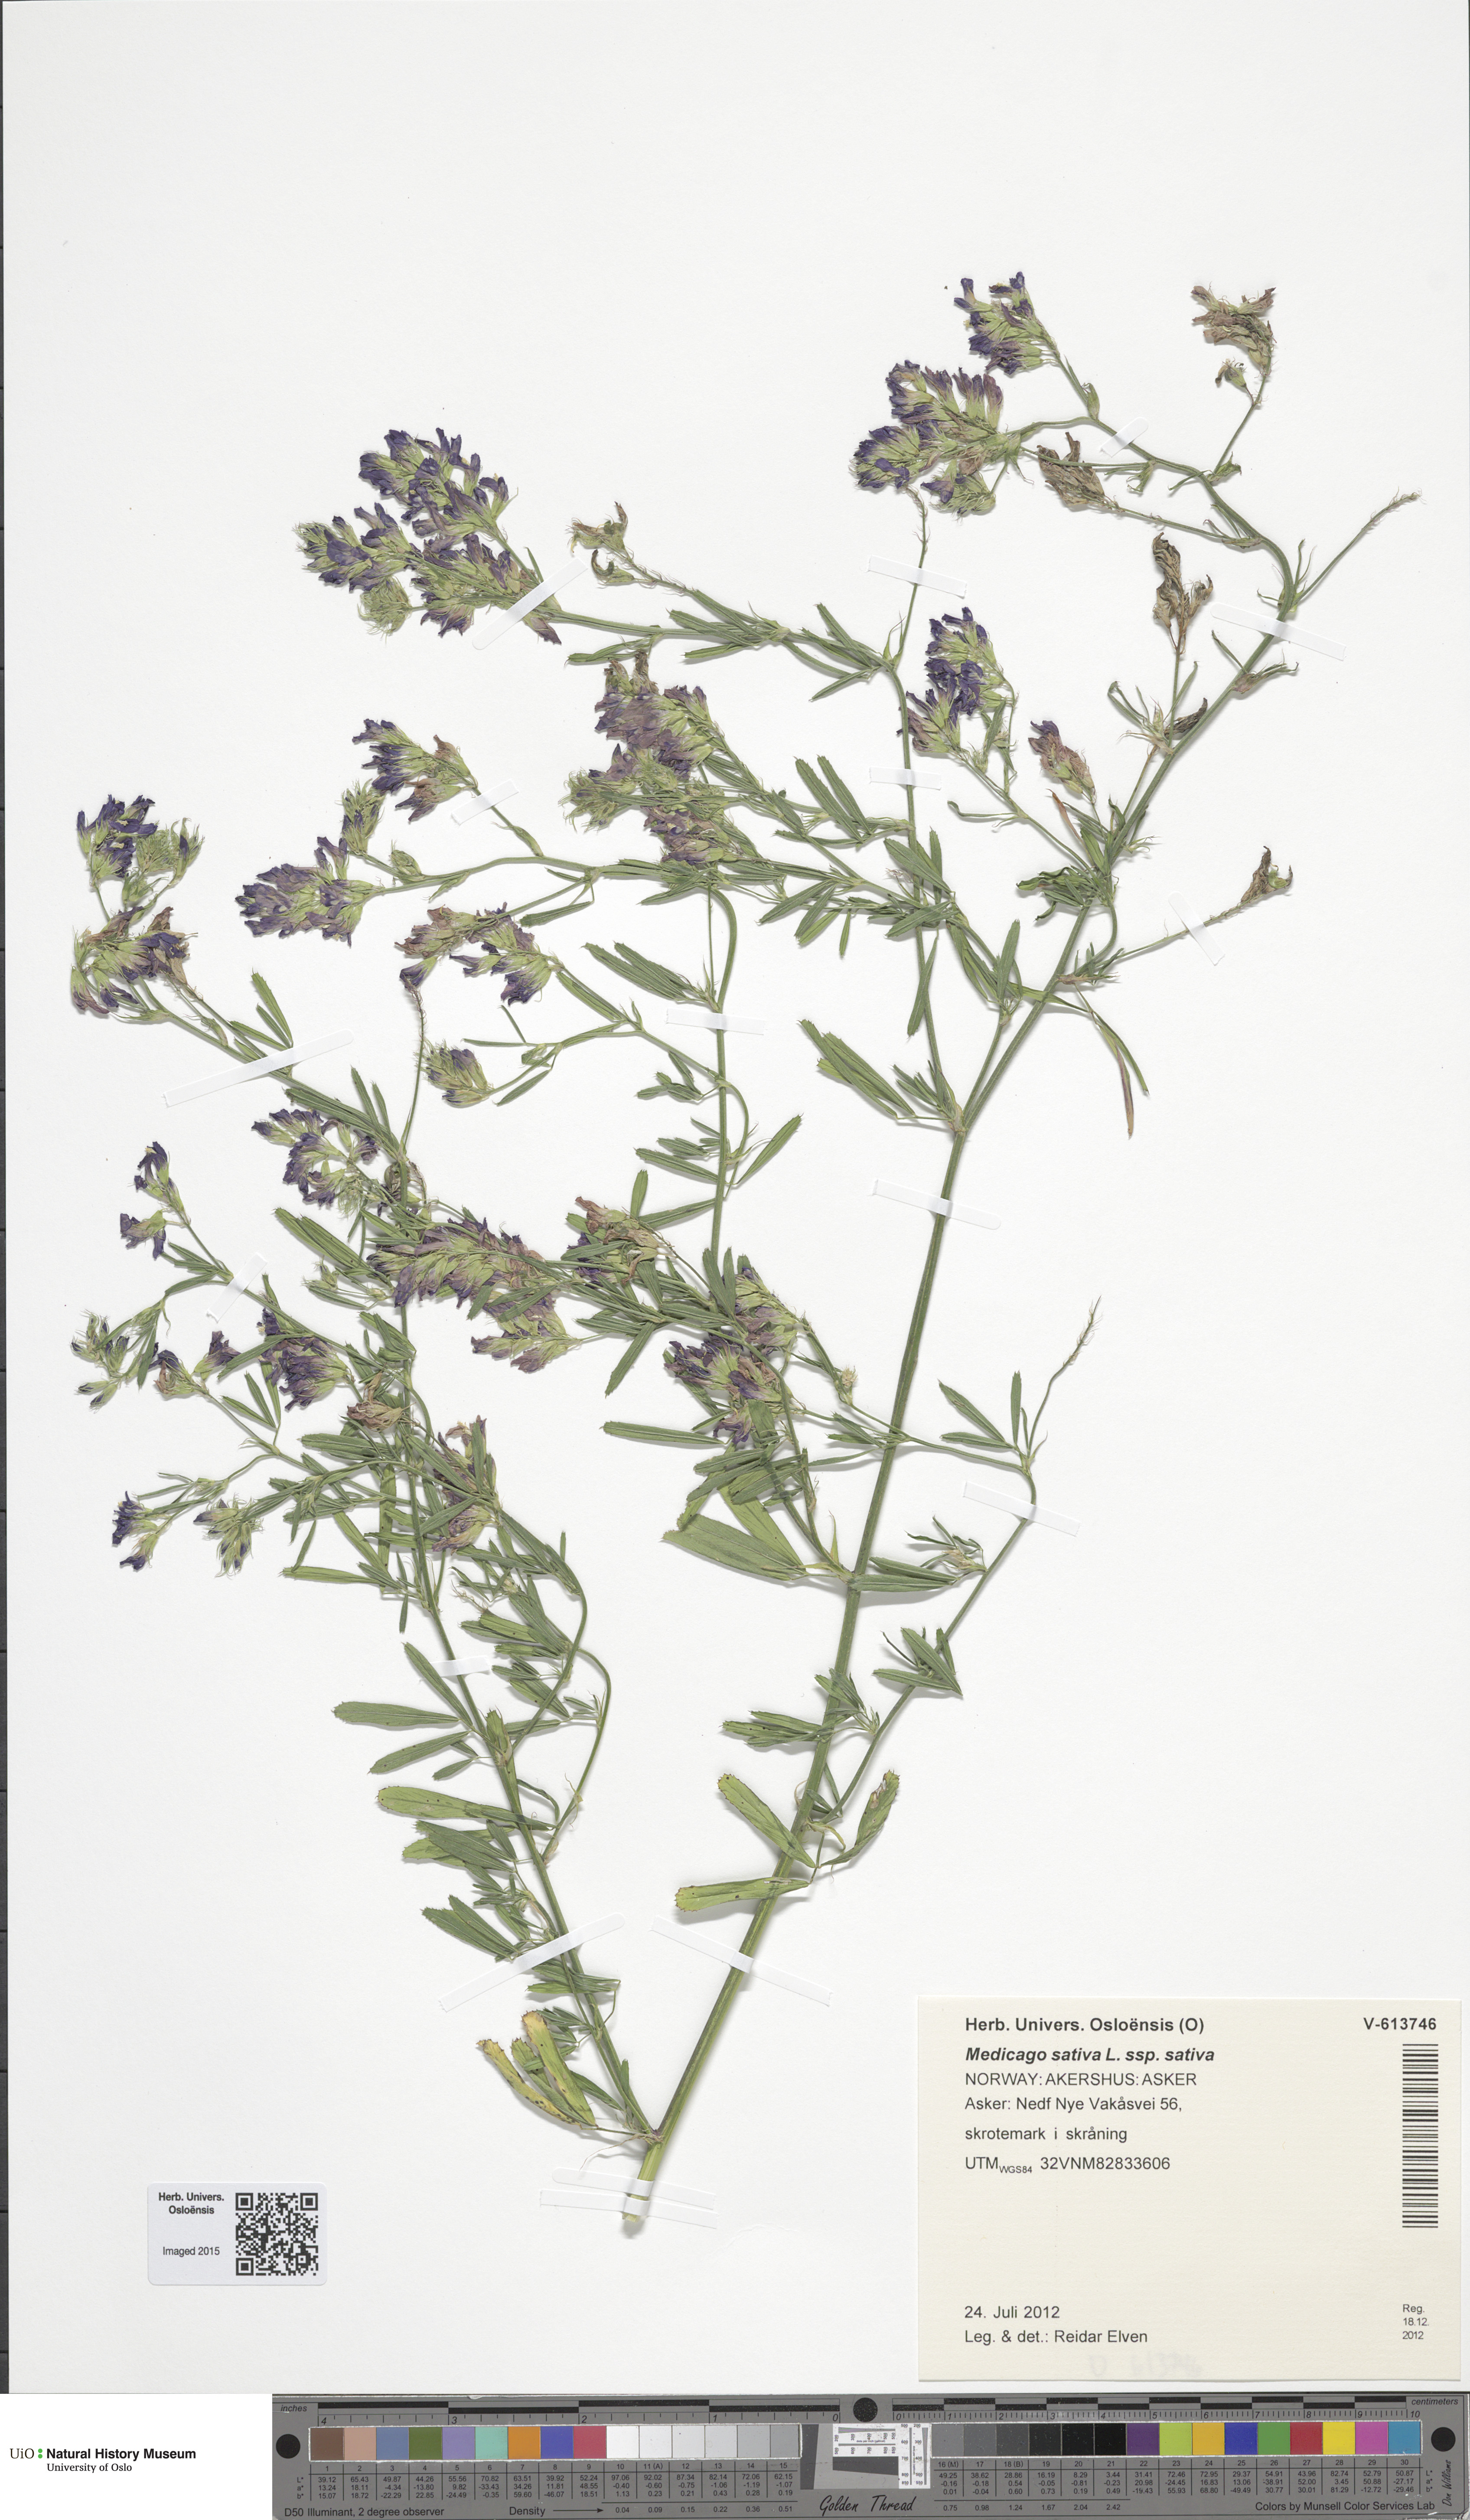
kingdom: Plantae
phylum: Tracheophyta
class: Magnoliopsida
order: Fabales
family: Fabaceae
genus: Medicago
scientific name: Medicago sativa
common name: Alfalfa
